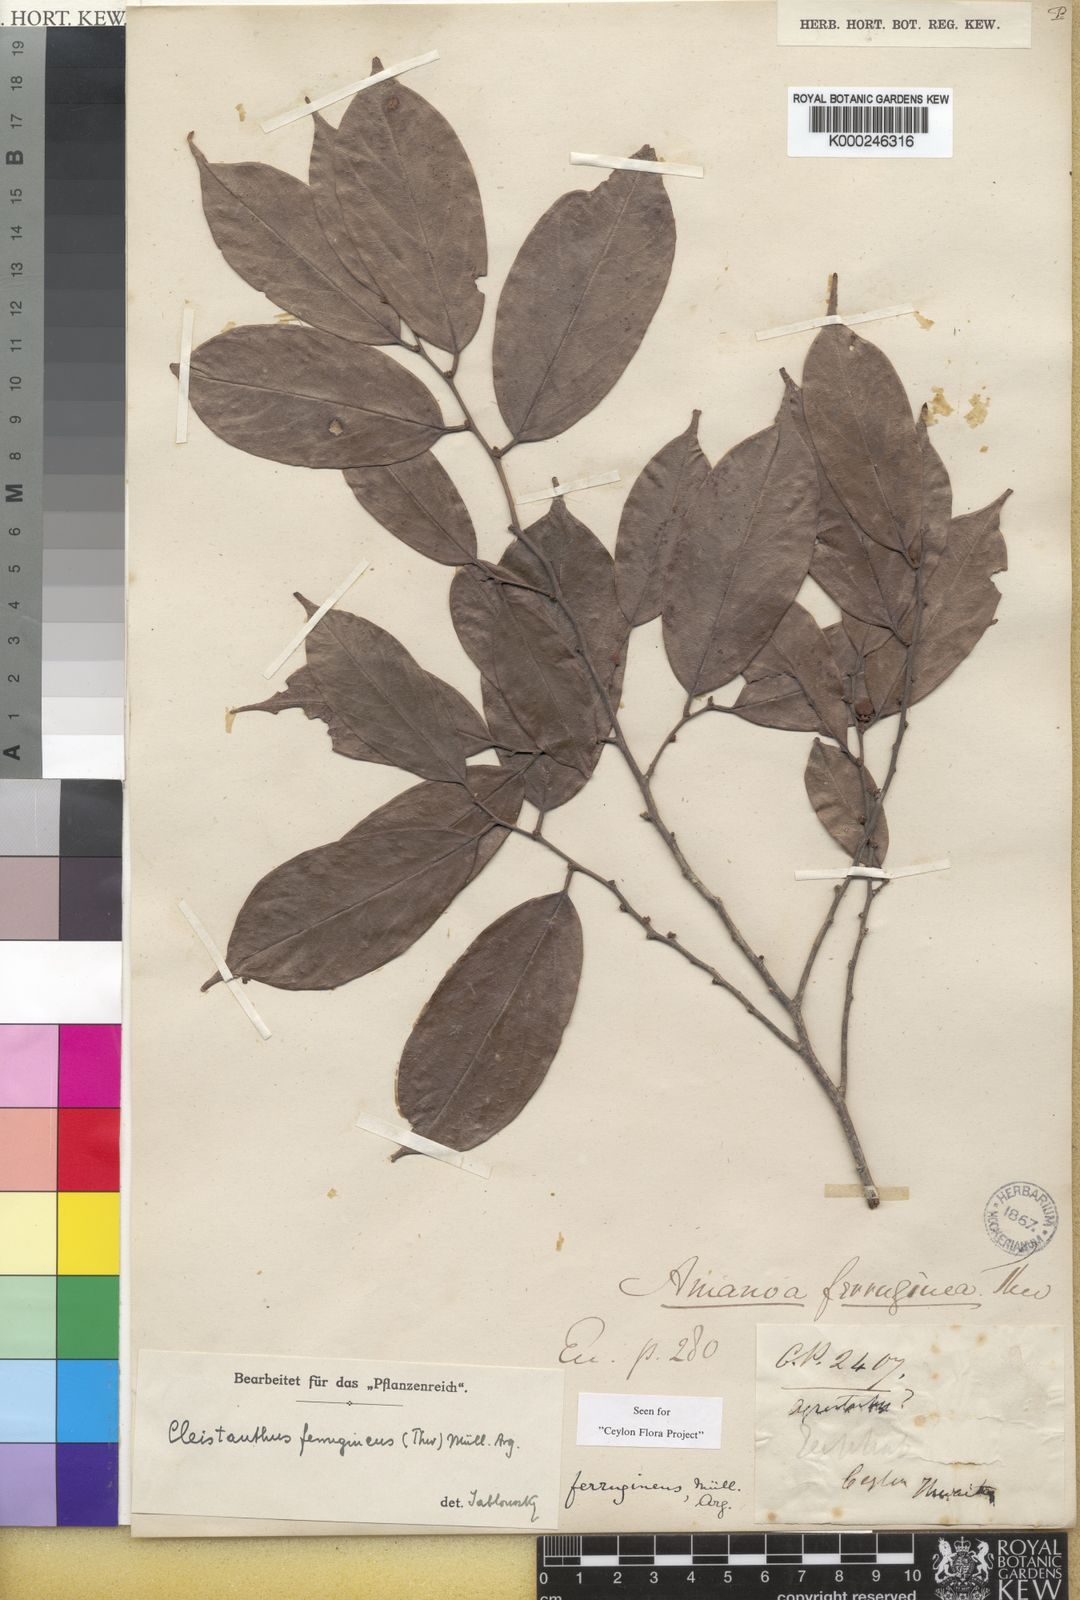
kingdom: Plantae
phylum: Tracheophyta
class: Magnoliopsida
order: Malpighiales
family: Phyllanthaceae
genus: Cleistanthus
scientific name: Cleistanthus
